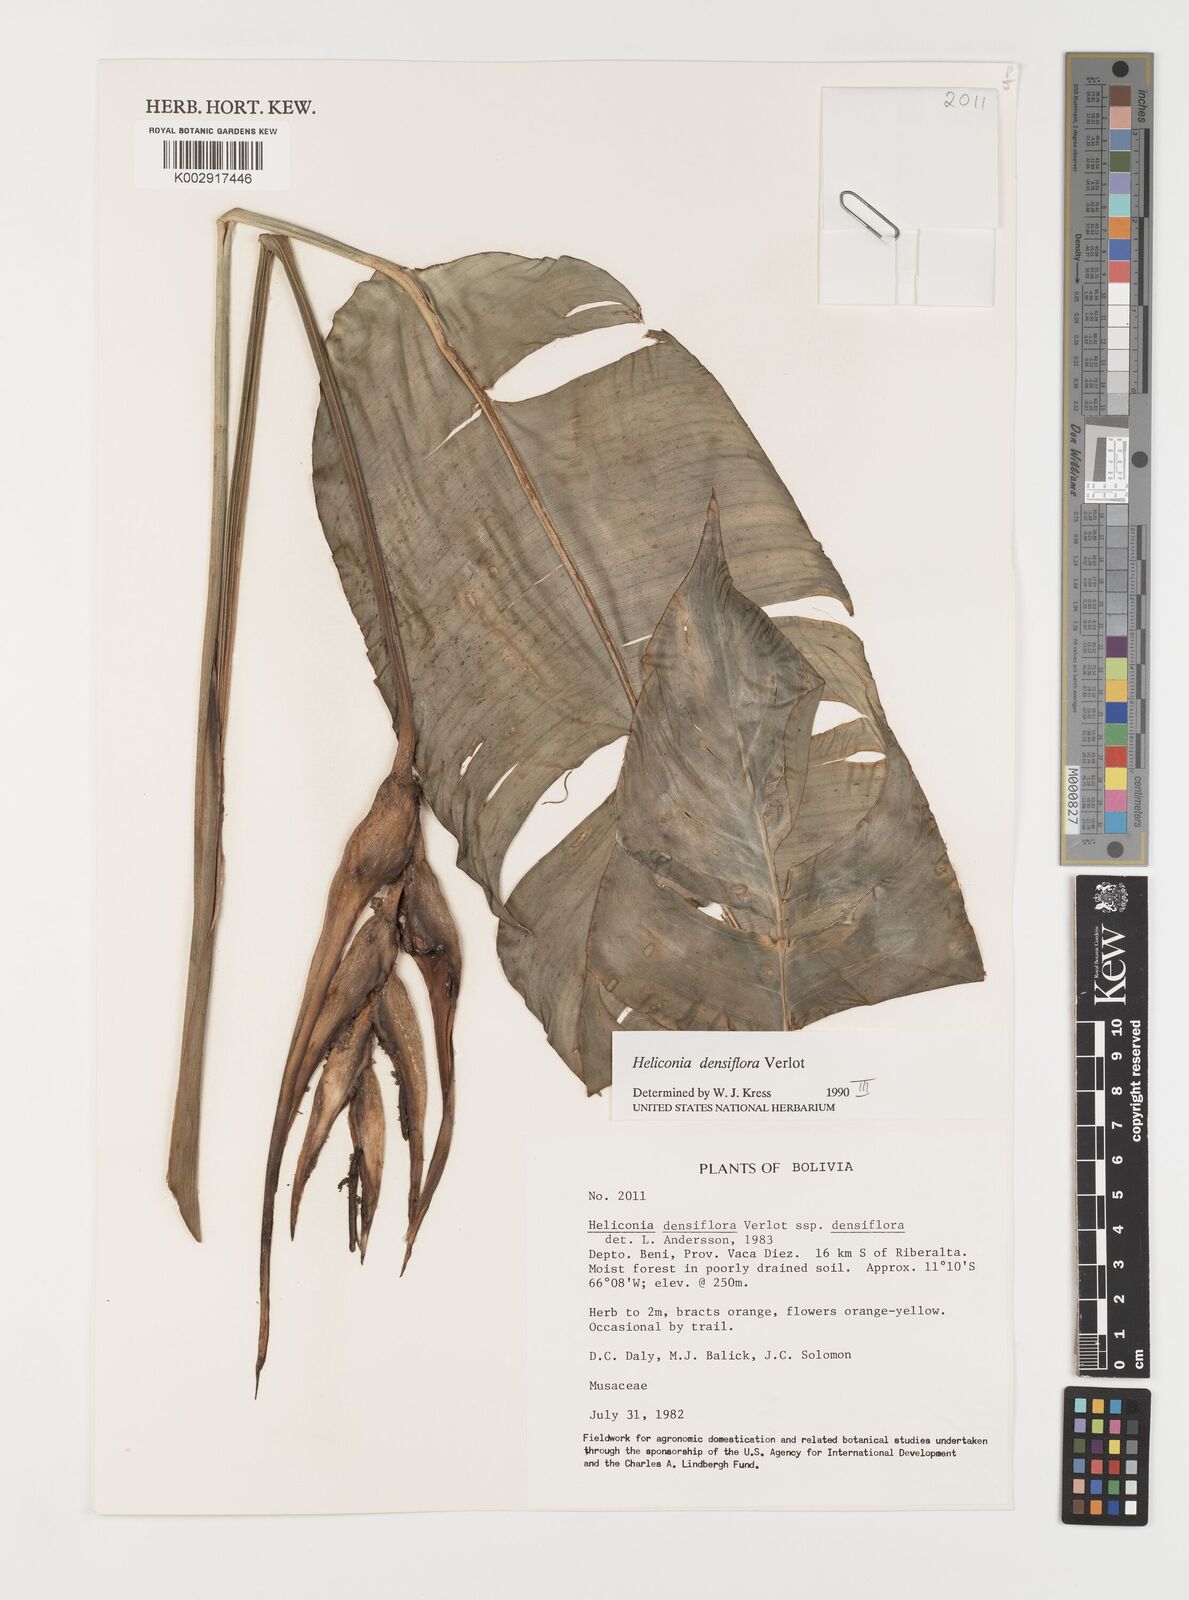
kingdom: Plantae
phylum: Tracheophyta
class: Liliopsida
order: Zingiberales
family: Heliconiaceae
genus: Heliconia
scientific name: Heliconia densiflora
